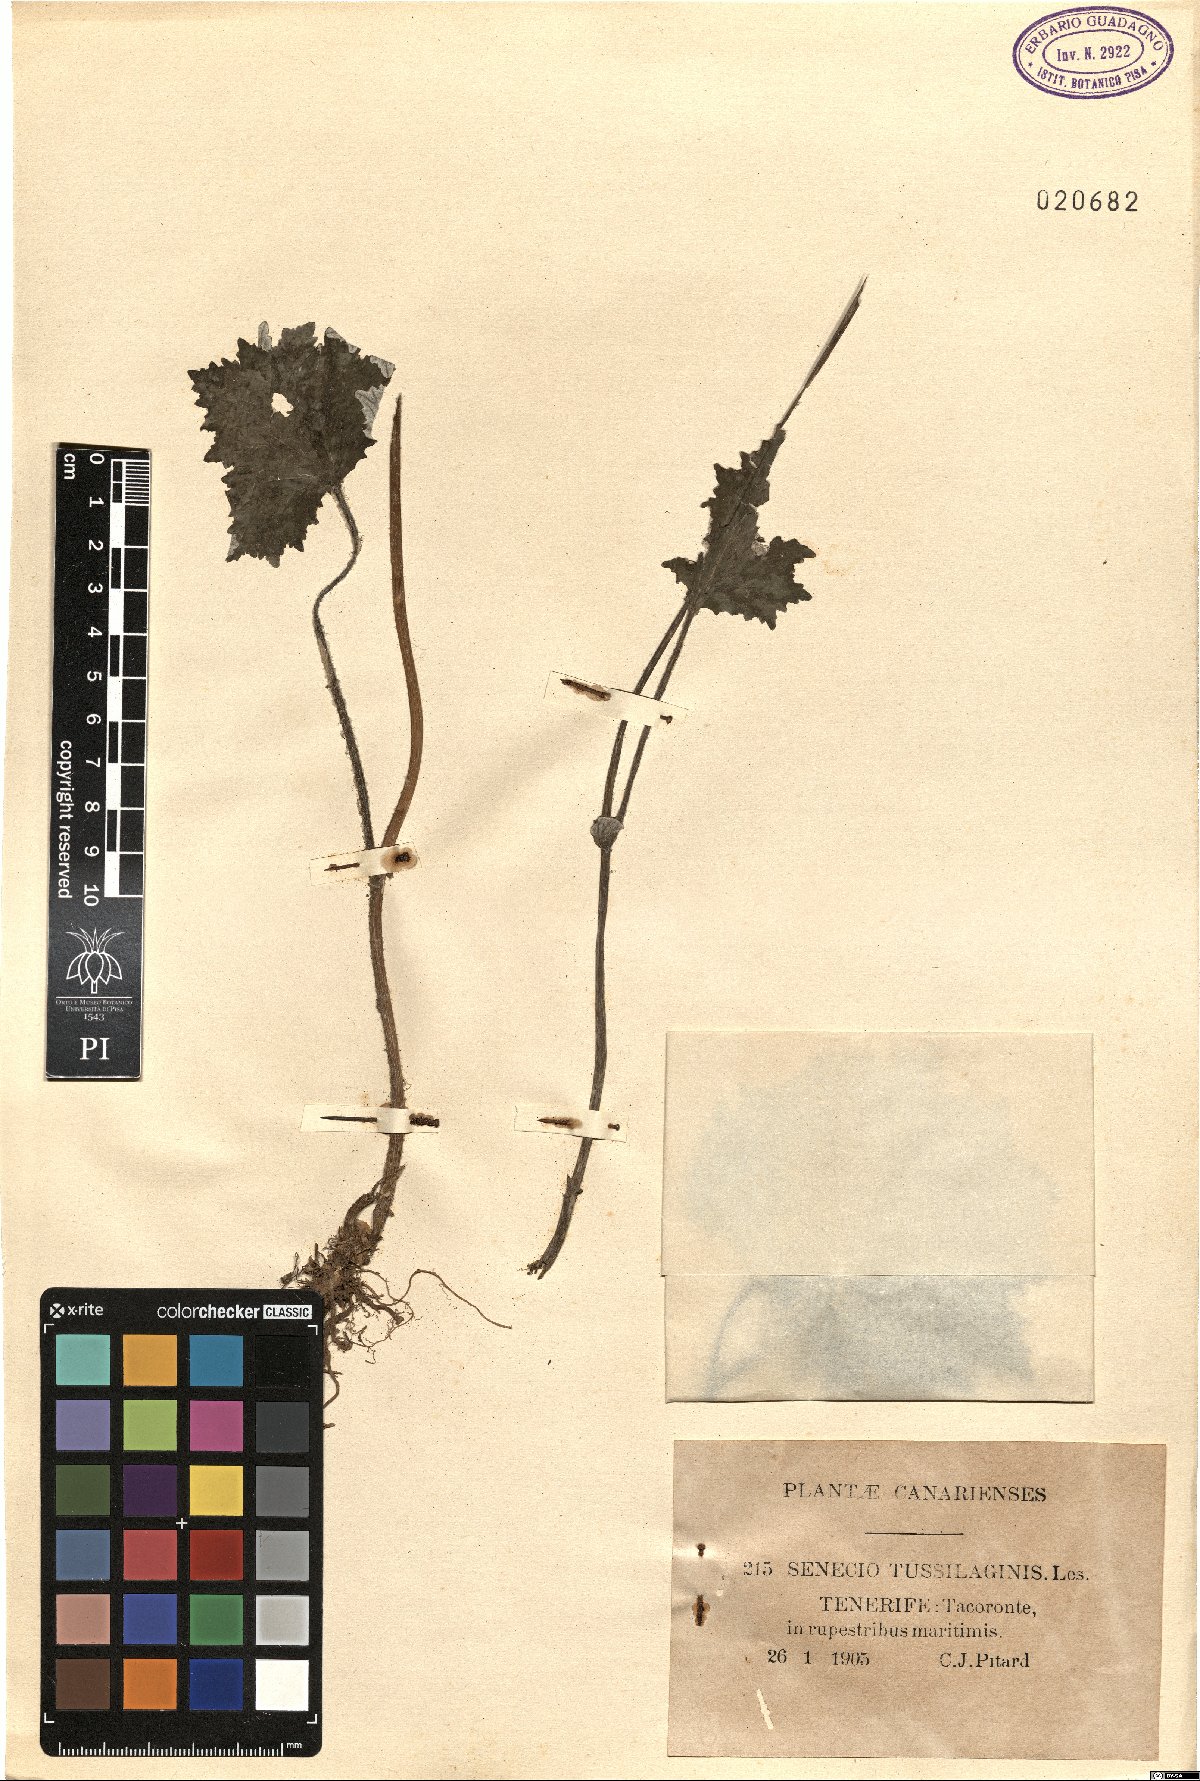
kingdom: Plantae
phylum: Tracheophyta
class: Magnoliopsida
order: Asterales
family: Asteraceae
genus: Pericallis
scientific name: Pericallis tussilaginis
